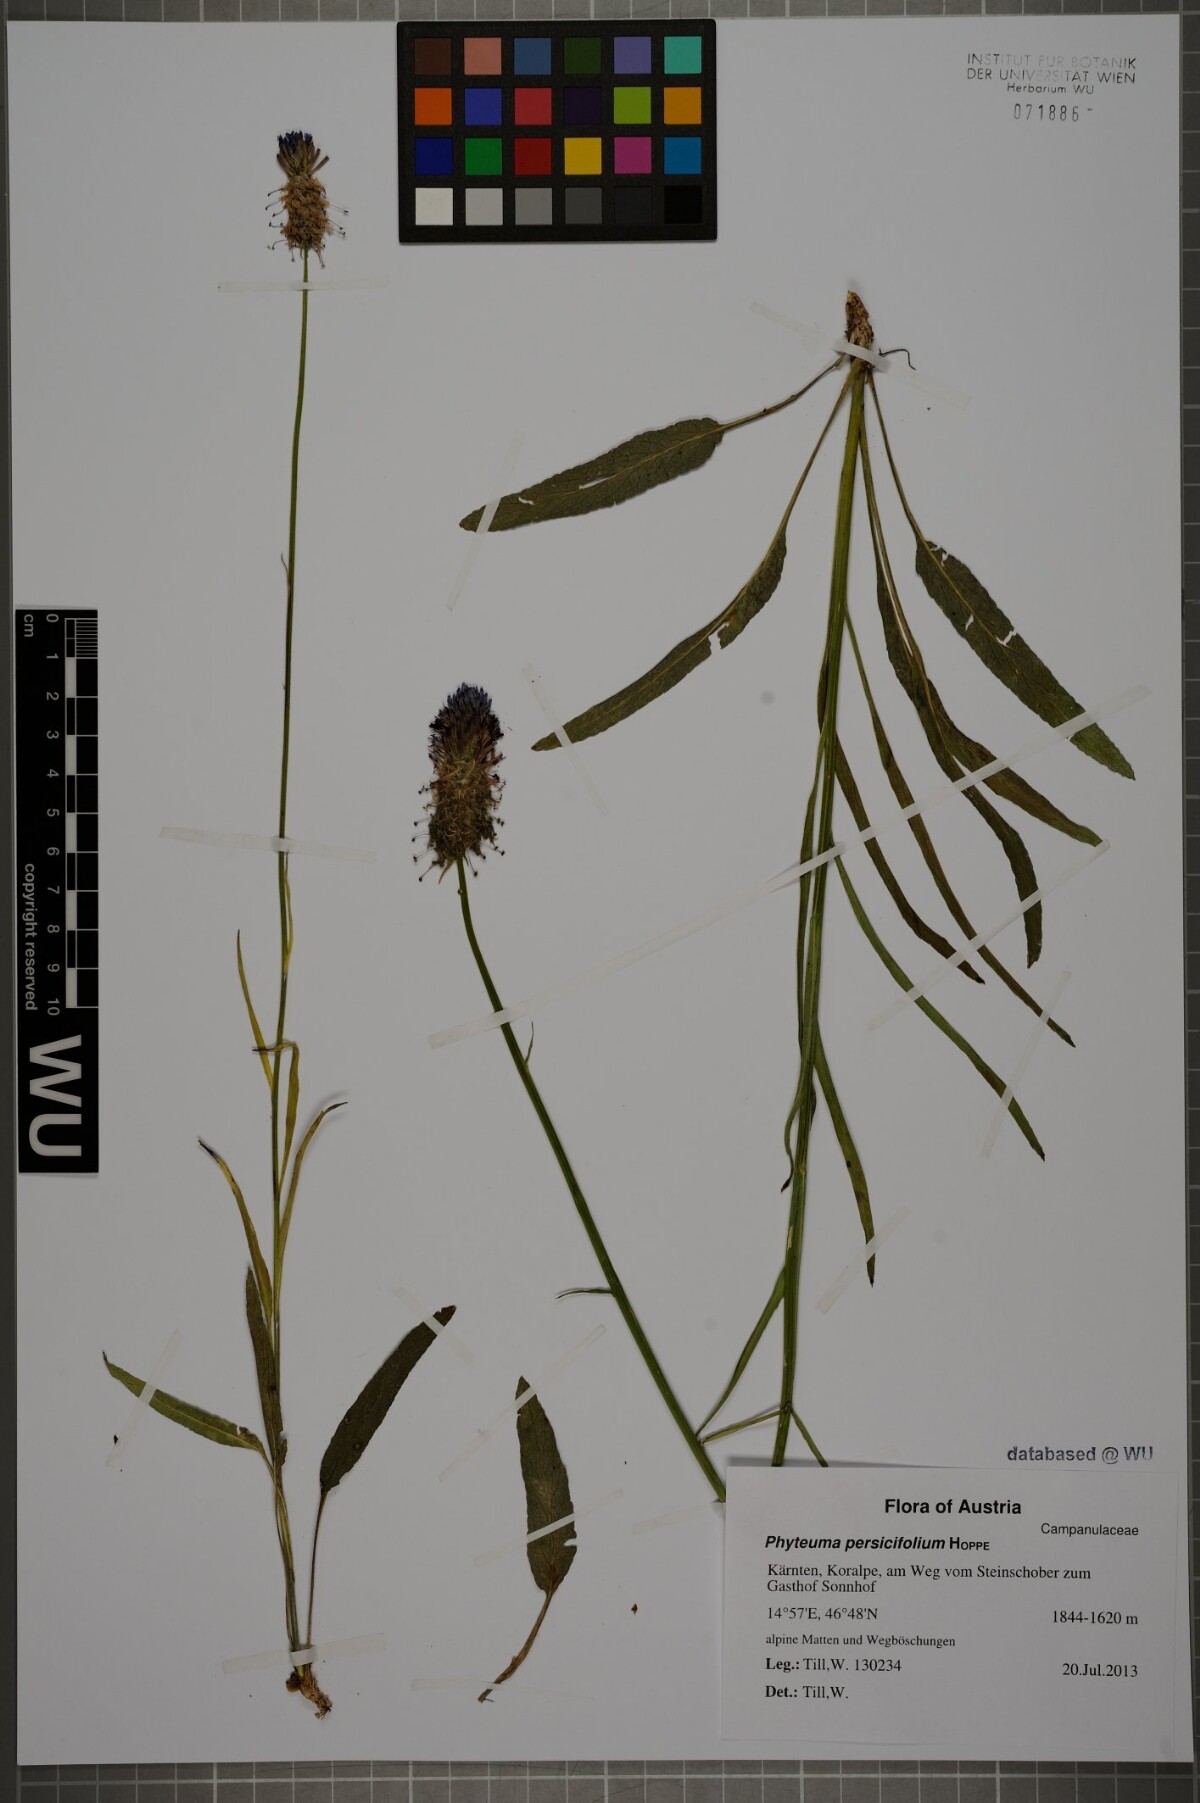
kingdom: Plantae
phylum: Tracheophyta
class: Magnoliopsida
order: Asterales
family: Campanulaceae
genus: Phyteuma
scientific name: Phyteuma persicifolium
